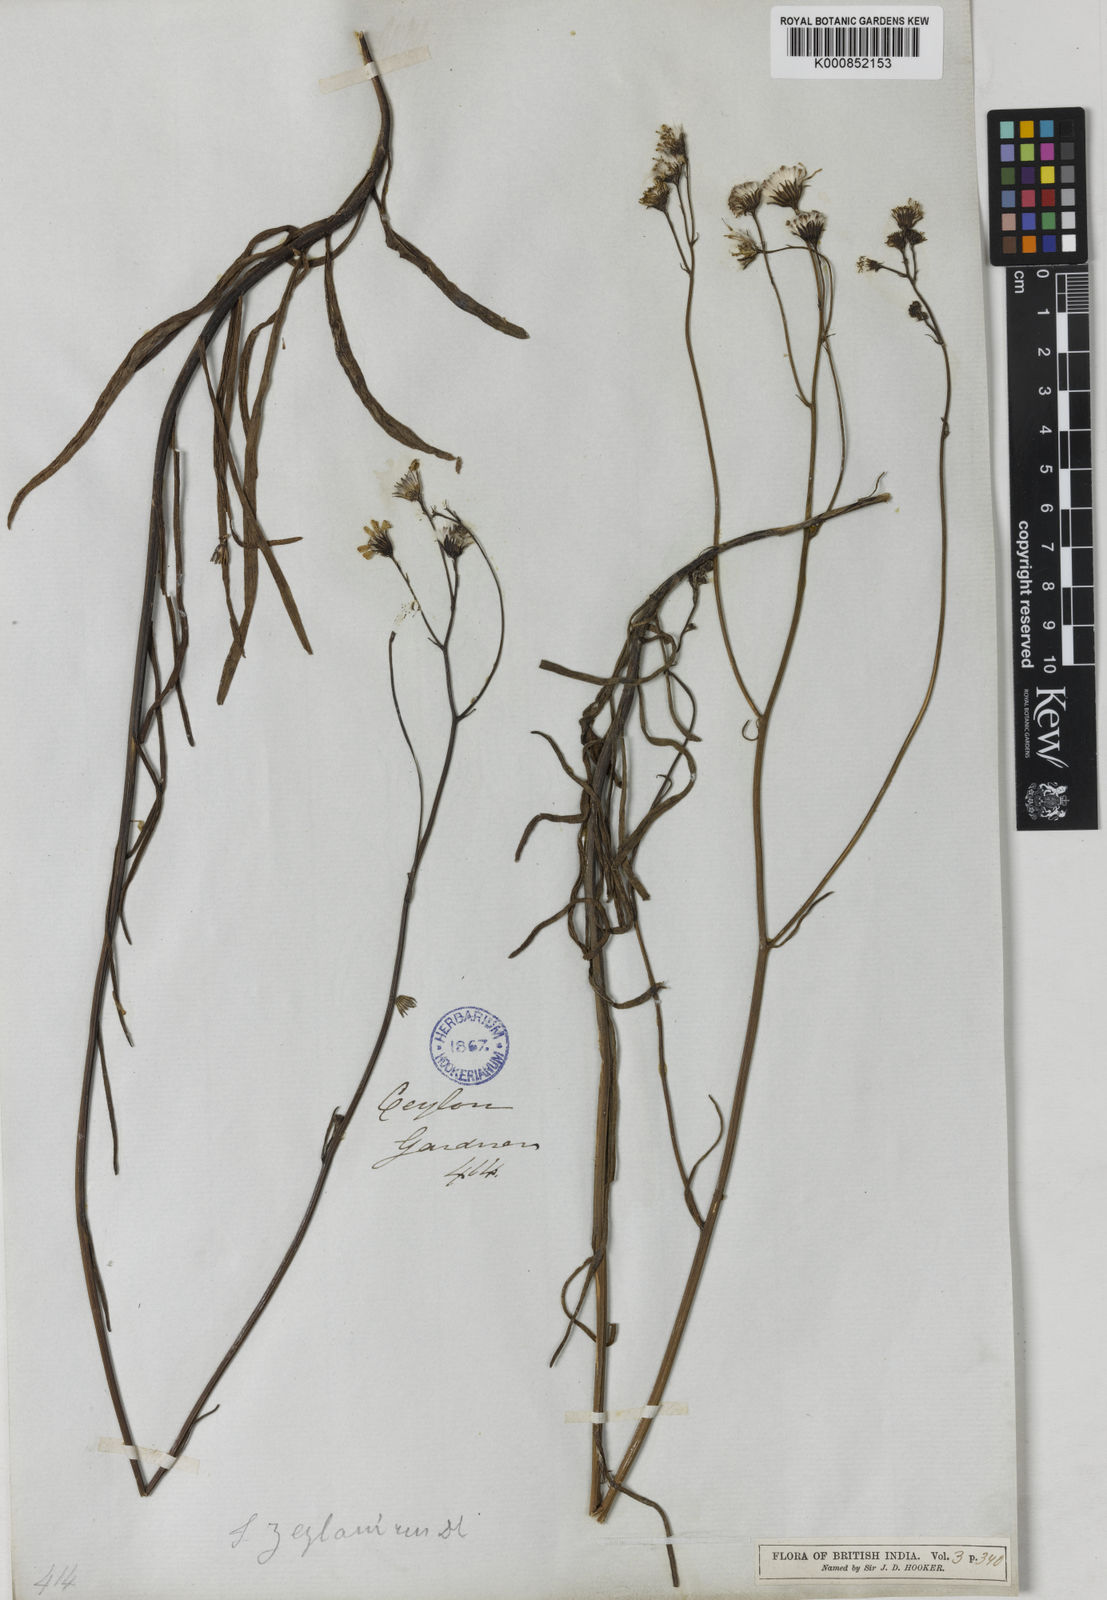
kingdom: Plantae
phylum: Tracheophyta
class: Magnoliopsida
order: Asterales
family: Asteraceae
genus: Senecio
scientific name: Senecio zeylanicus
